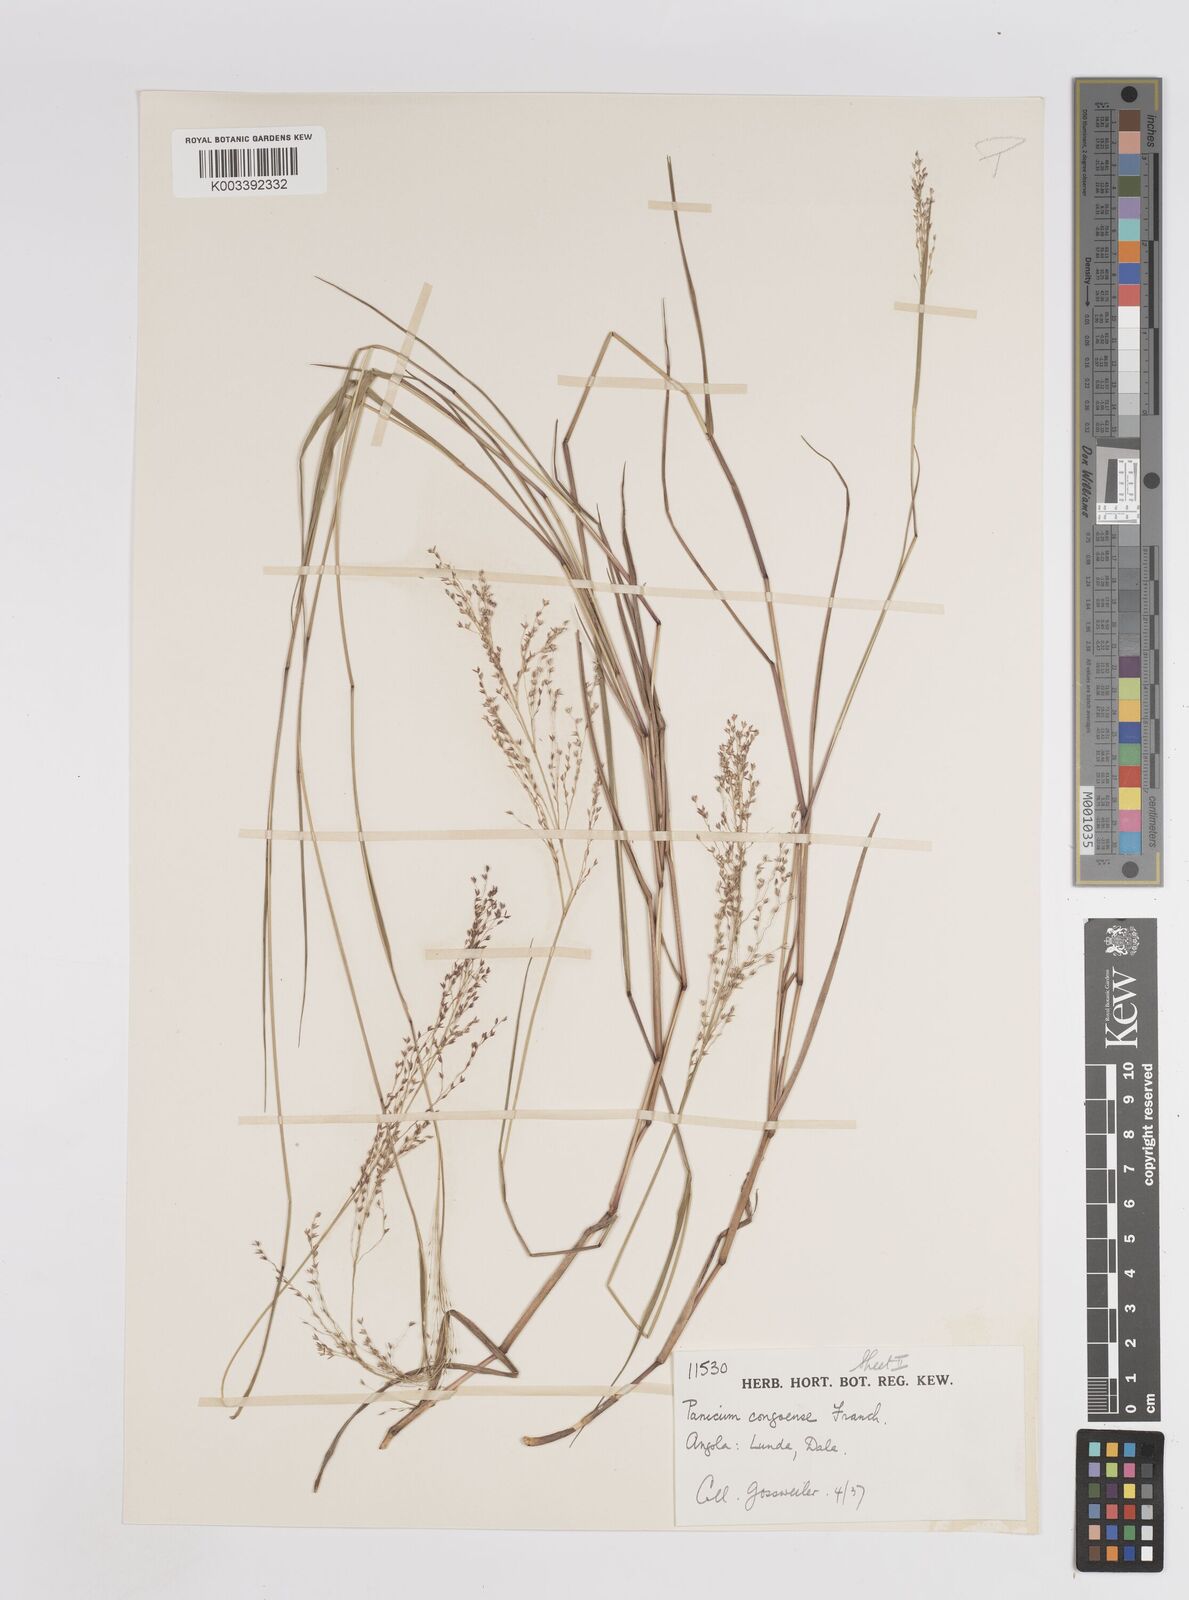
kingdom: Plantae
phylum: Tracheophyta
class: Liliopsida
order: Poales
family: Poaceae
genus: Panicum
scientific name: Panicum genuflexum
